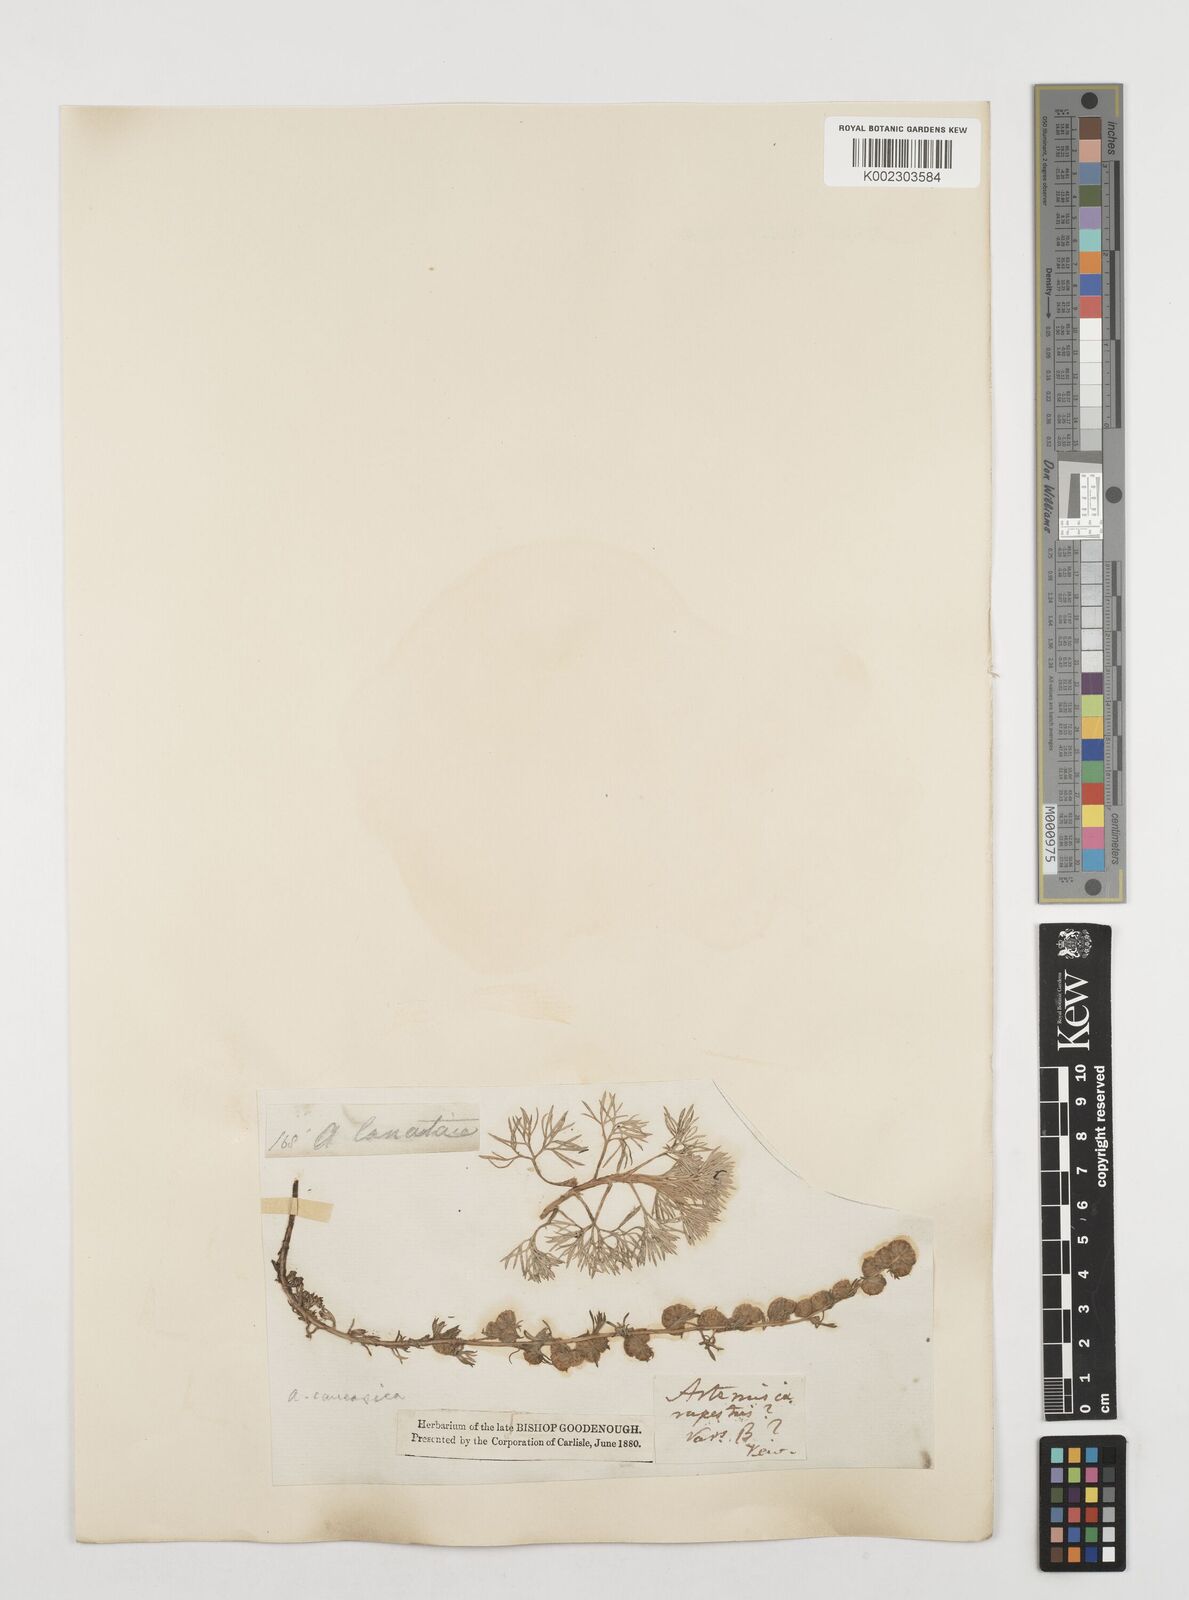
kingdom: Plantae
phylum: Tracheophyta
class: Magnoliopsida
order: Asterales
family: Asteraceae
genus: Artemisia
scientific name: Artemisia alpina
